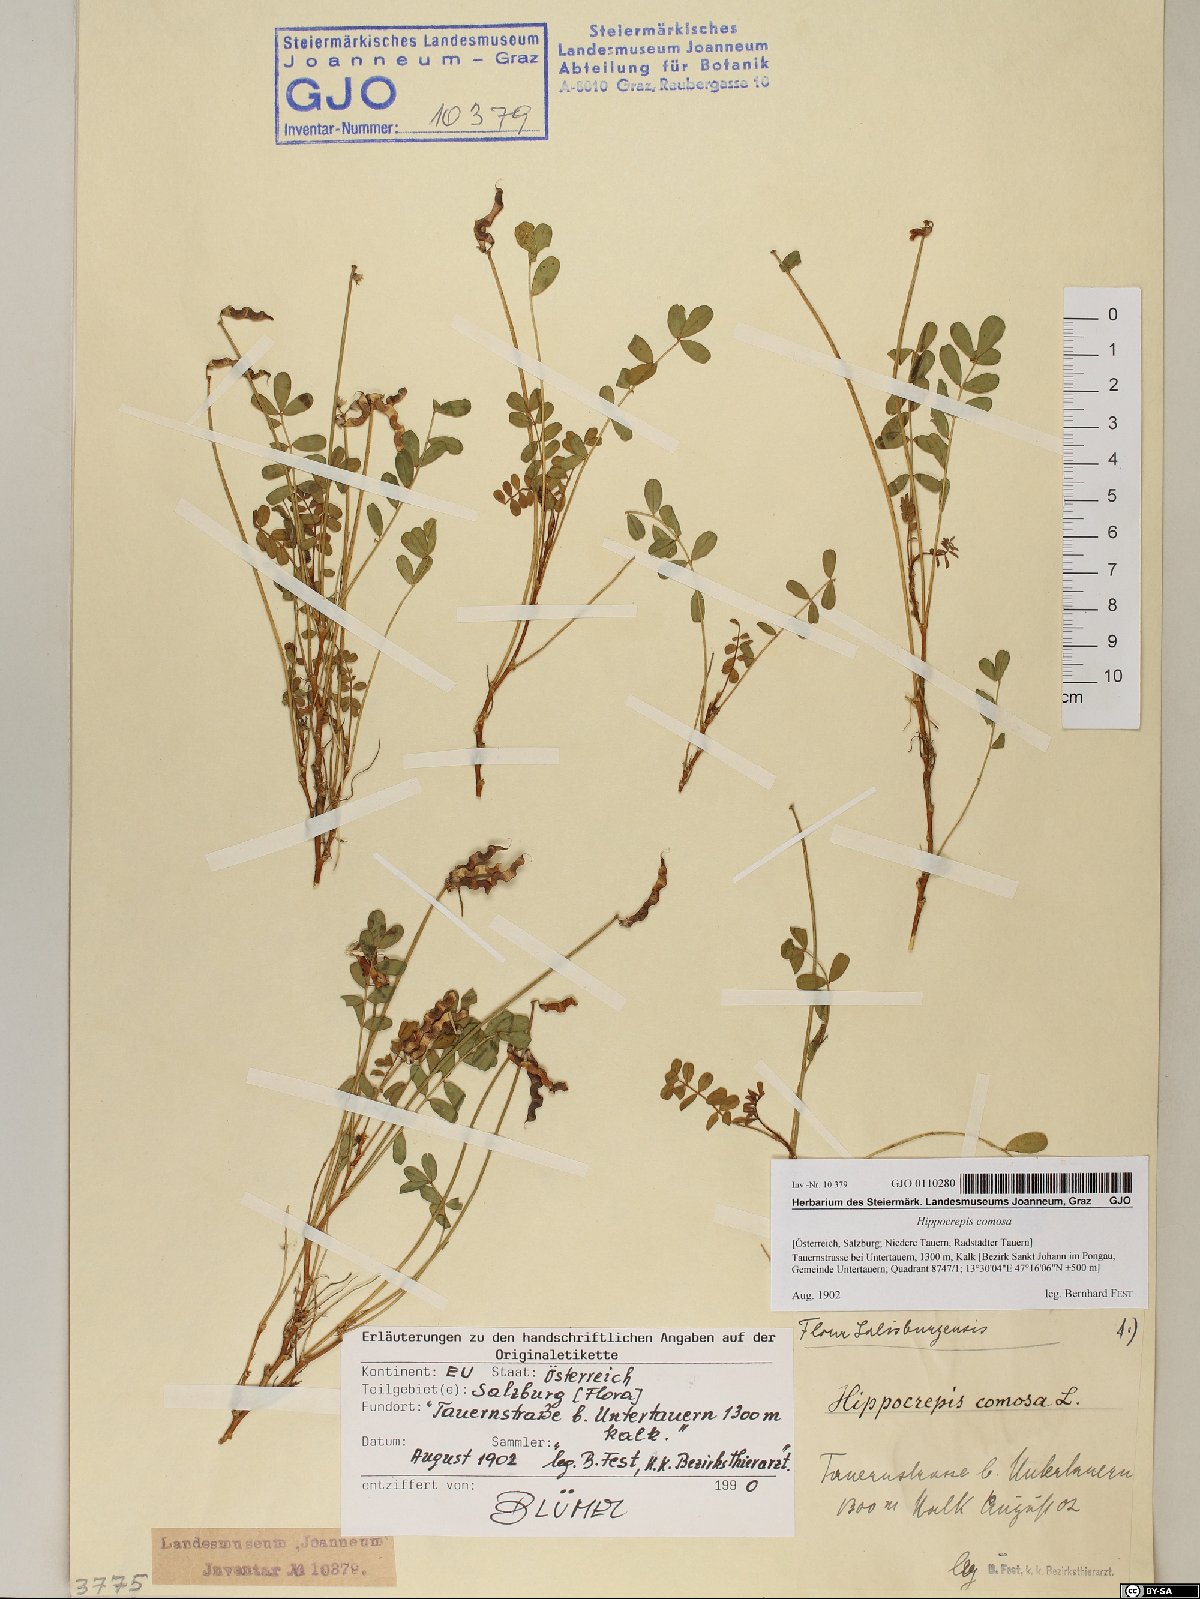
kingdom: Plantae
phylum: Tracheophyta
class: Magnoliopsida
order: Fabales
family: Fabaceae
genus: Hippocrepis
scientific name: Hippocrepis comosa
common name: Horseshoe vetch
